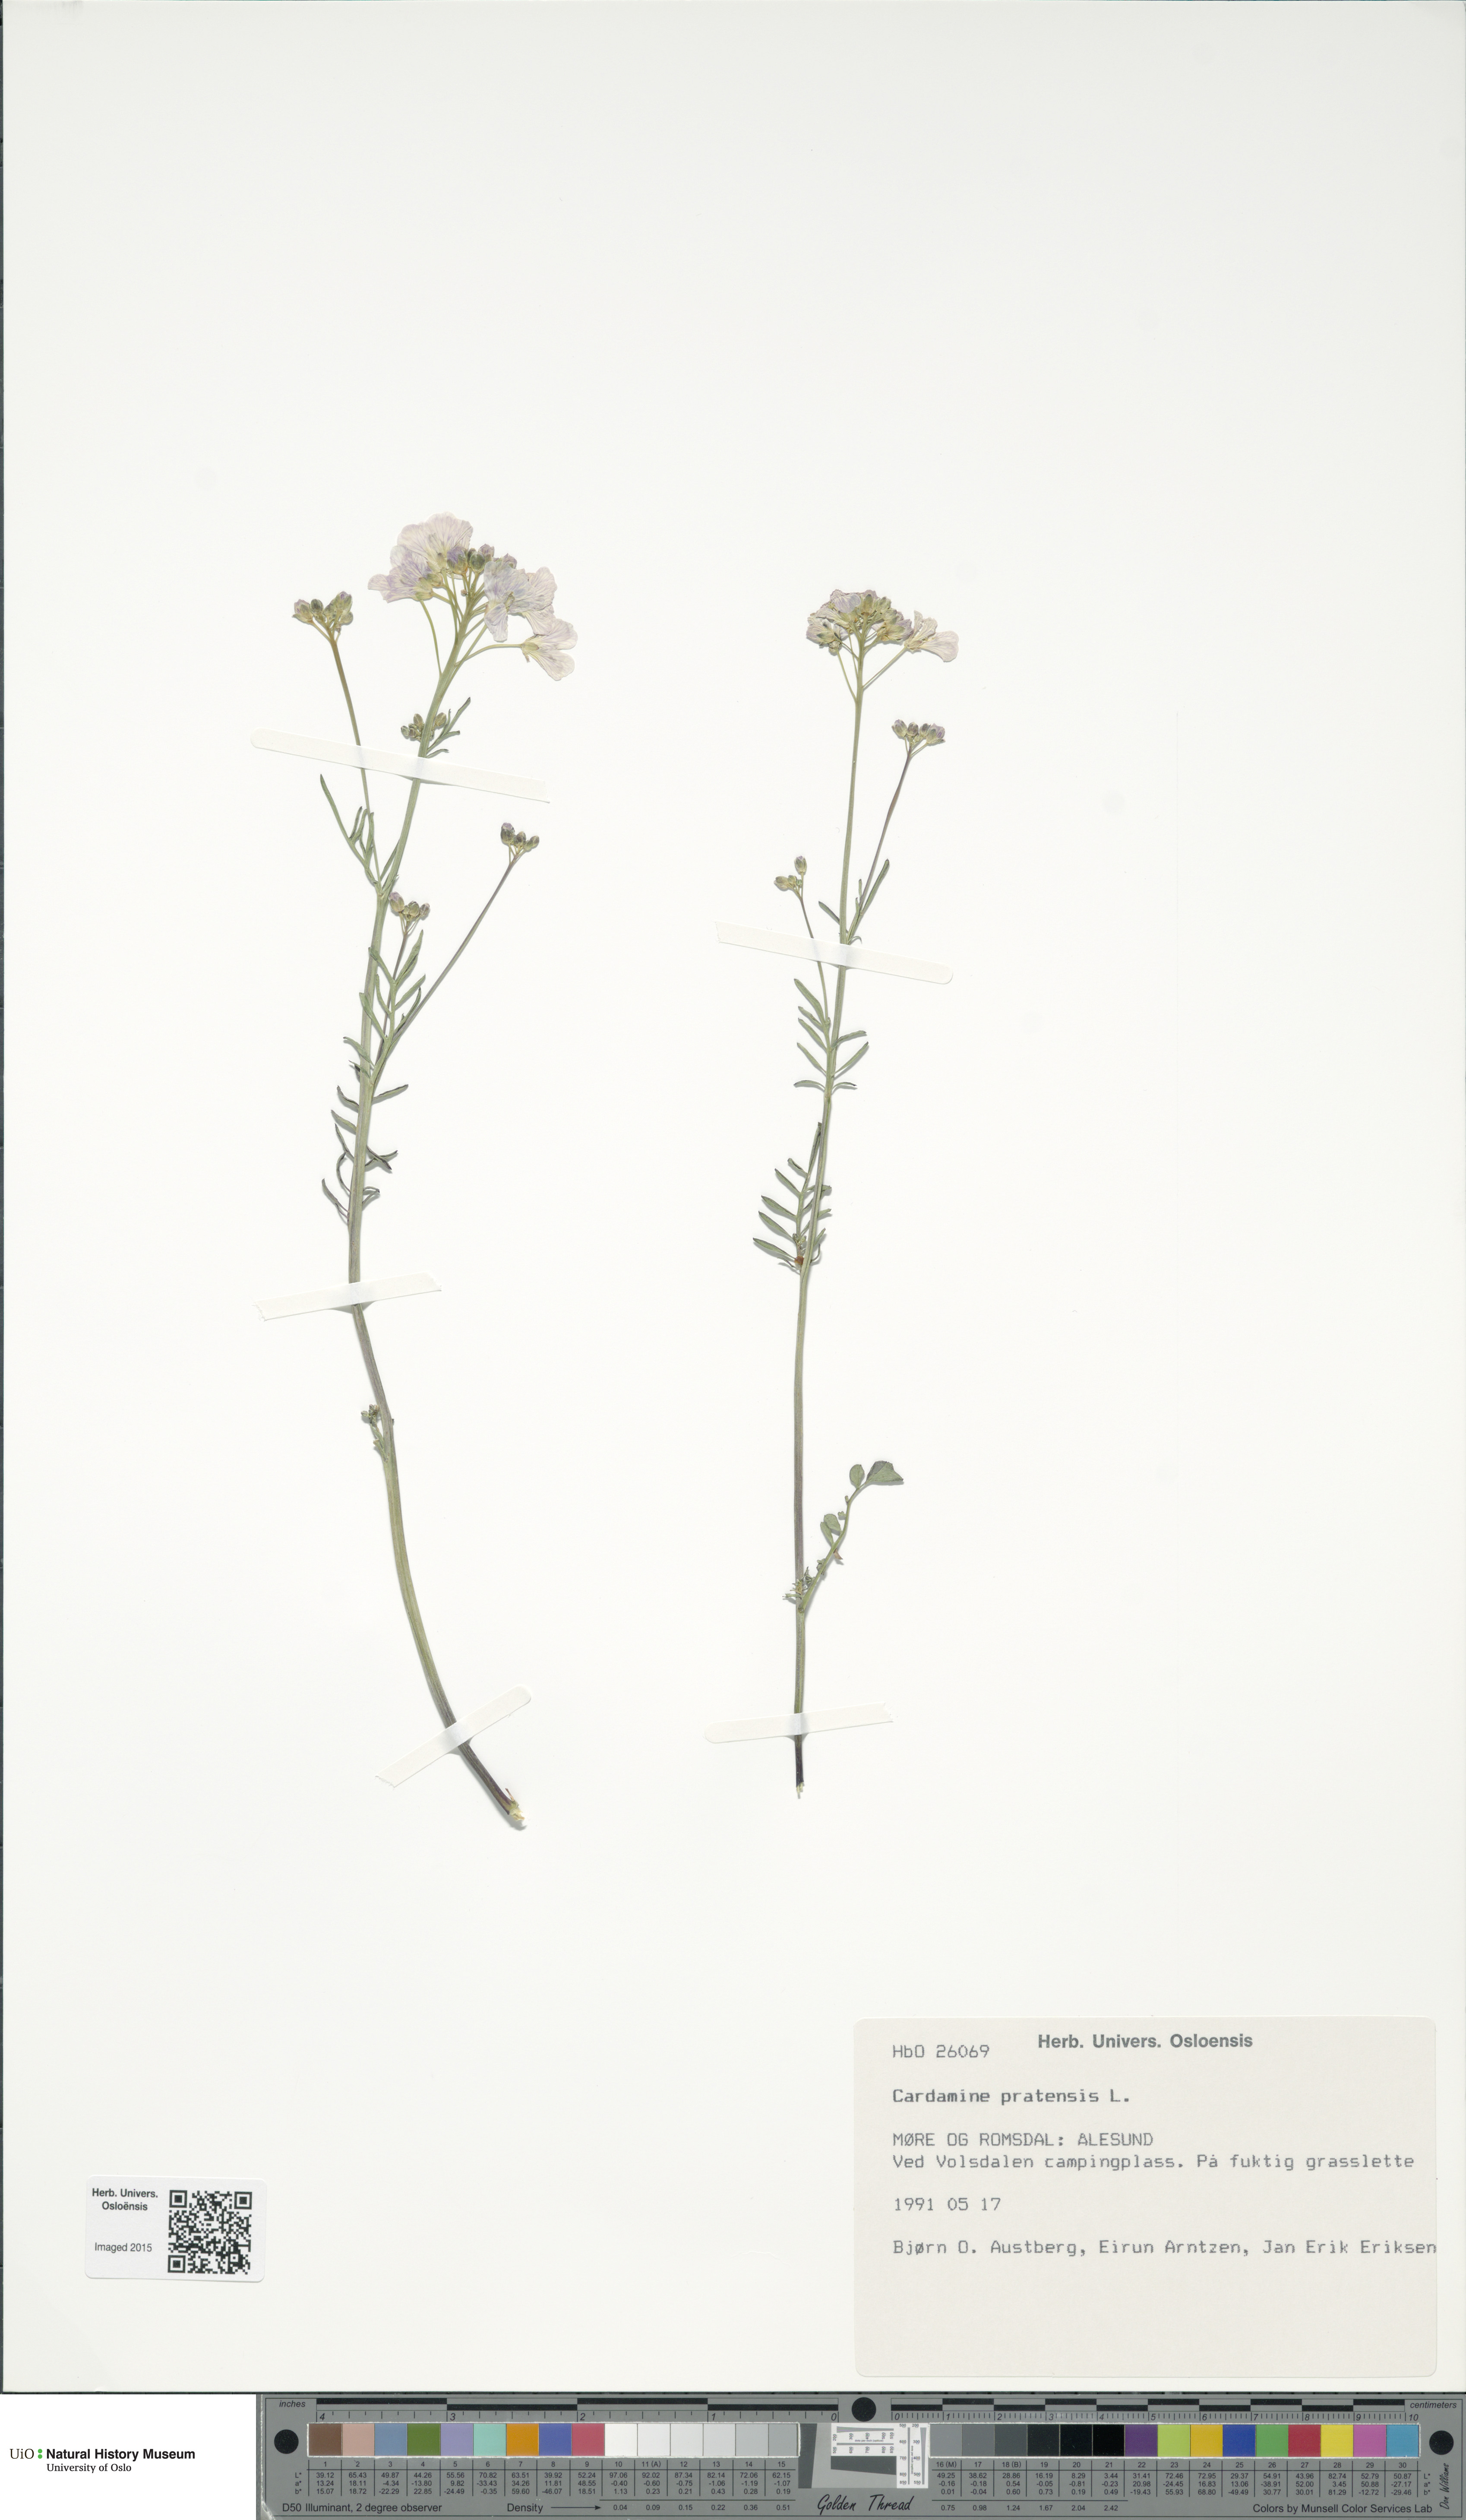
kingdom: Plantae
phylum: Tracheophyta
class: Magnoliopsida
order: Brassicales
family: Brassicaceae
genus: Cardamine
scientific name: Cardamine pratensis
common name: Cuckoo flower
